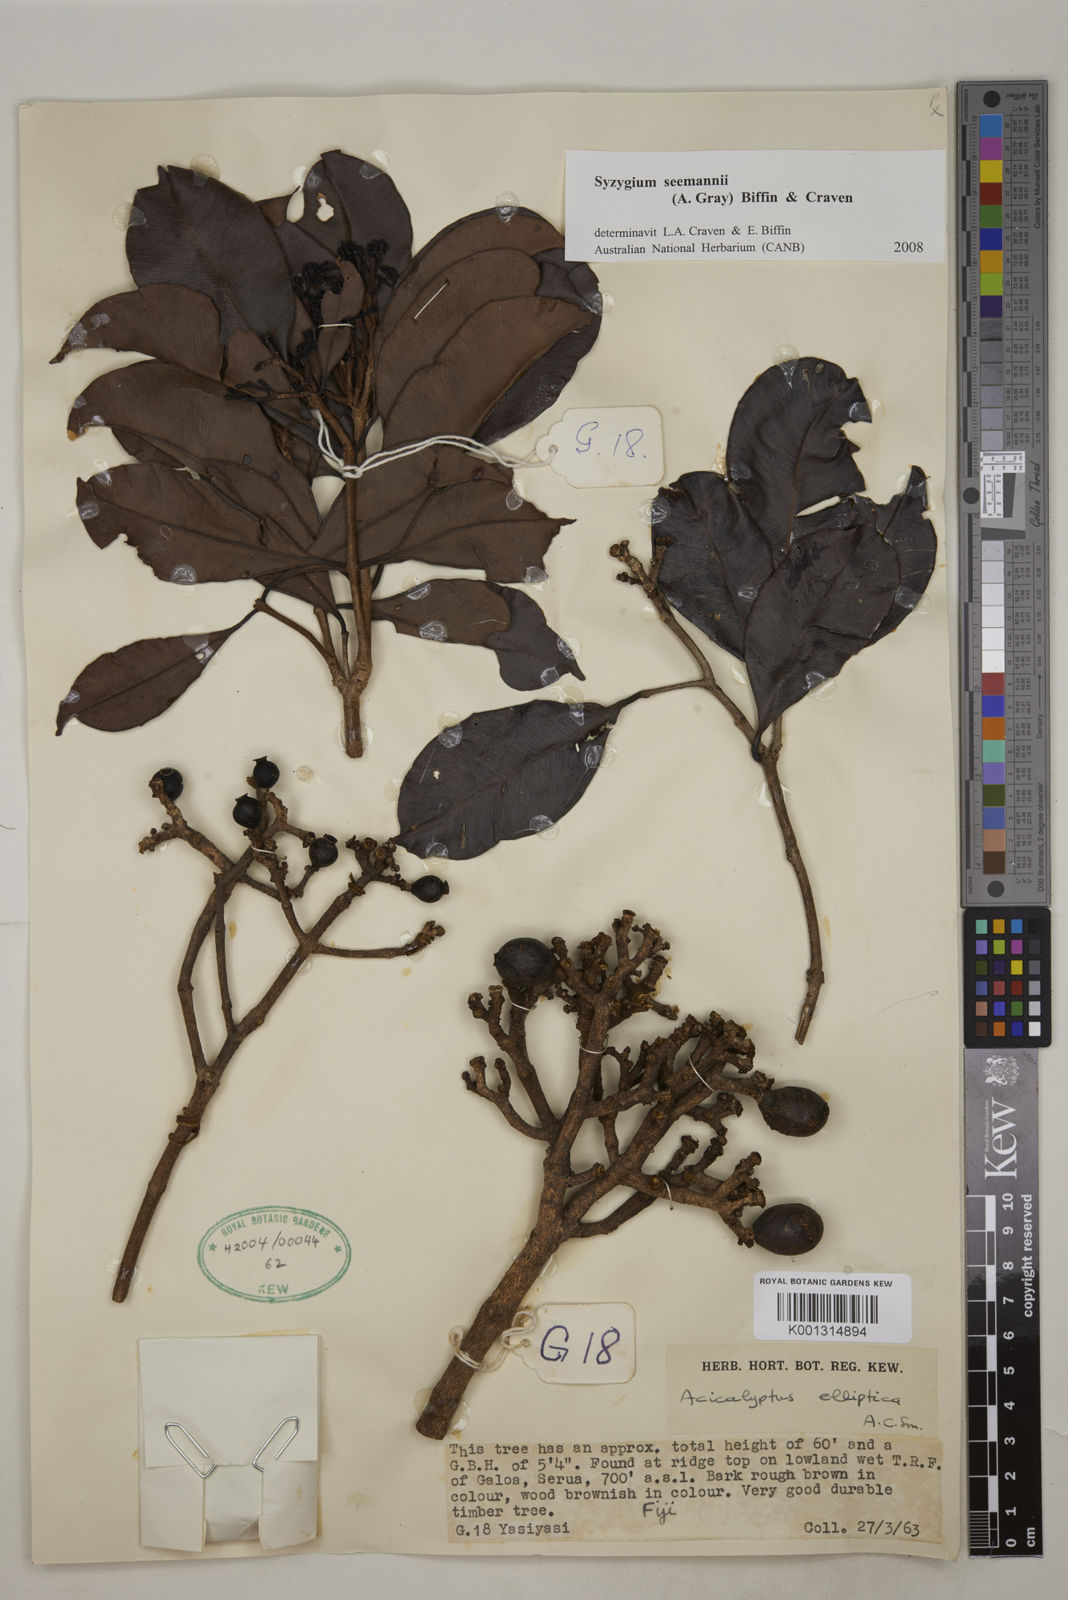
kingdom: Plantae
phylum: Tracheophyta
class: Magnoliopsida
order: Myrtales
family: Myrtaceae
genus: Syzygium
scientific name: Syzygium seemannii
